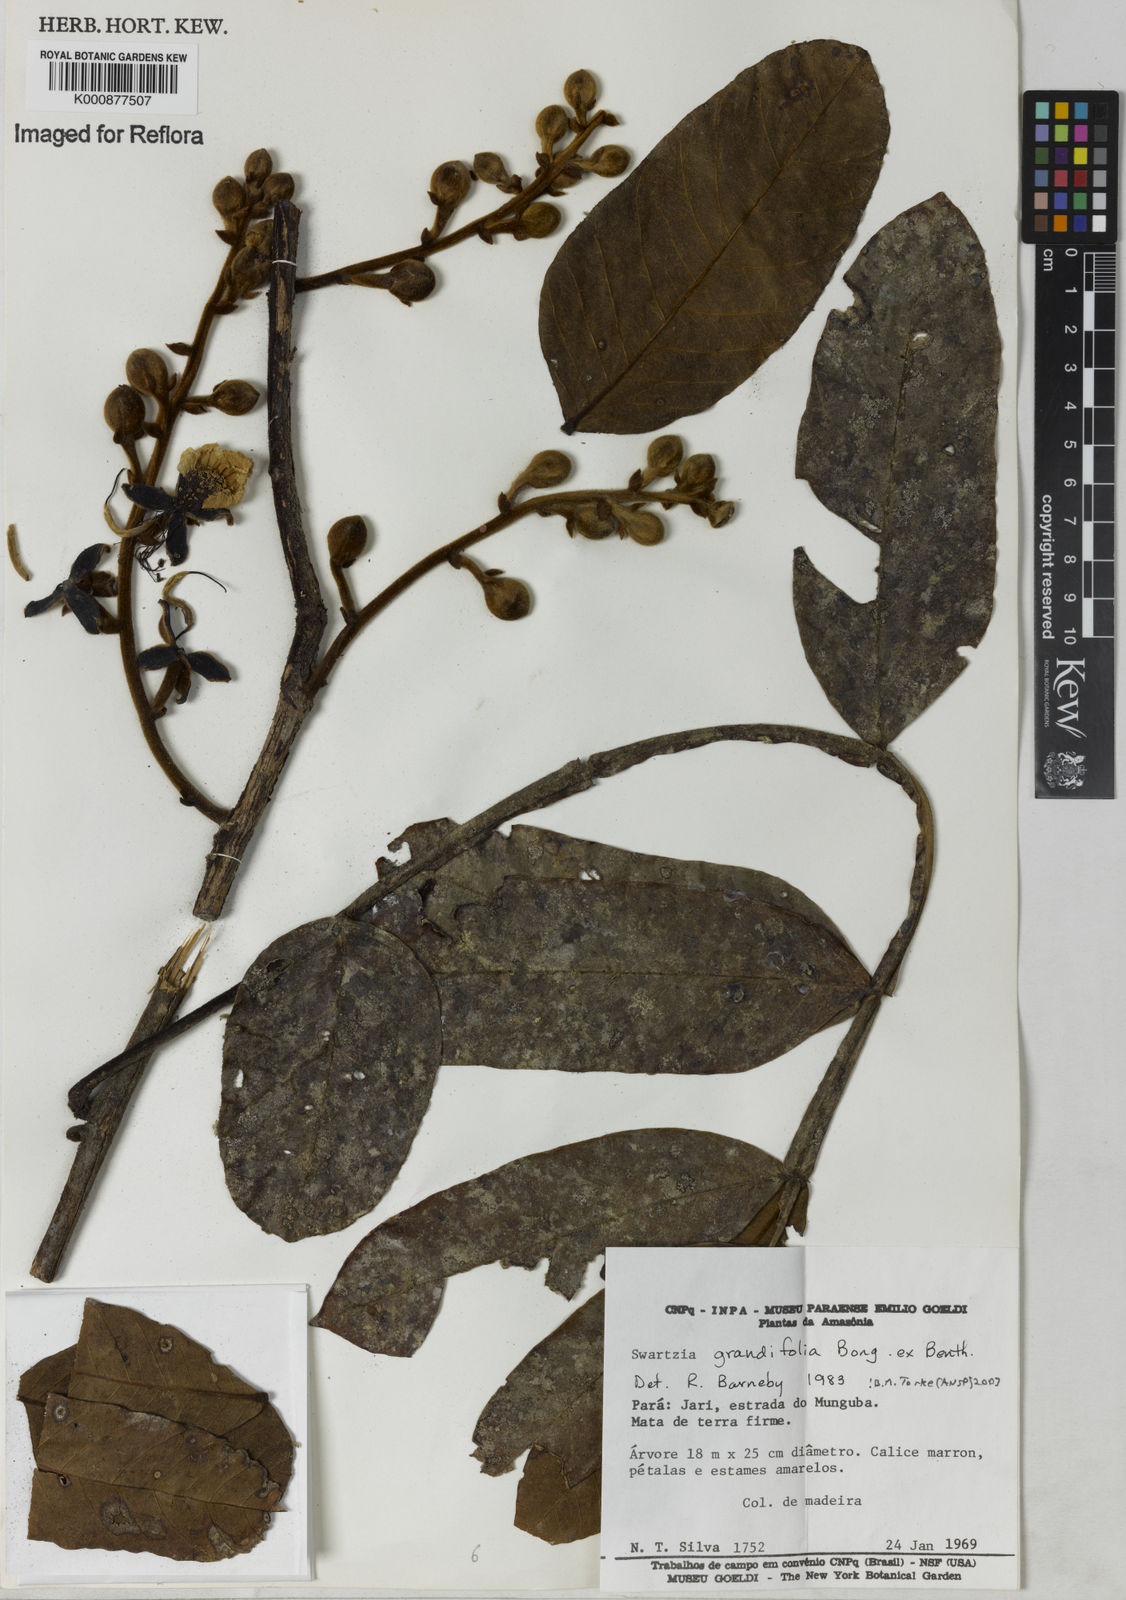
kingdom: Plantae
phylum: Tracheophyta
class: Magnoliopsida
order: Fabales
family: Fabaceae
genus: Swartzia
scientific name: Swartzia grandifolia
